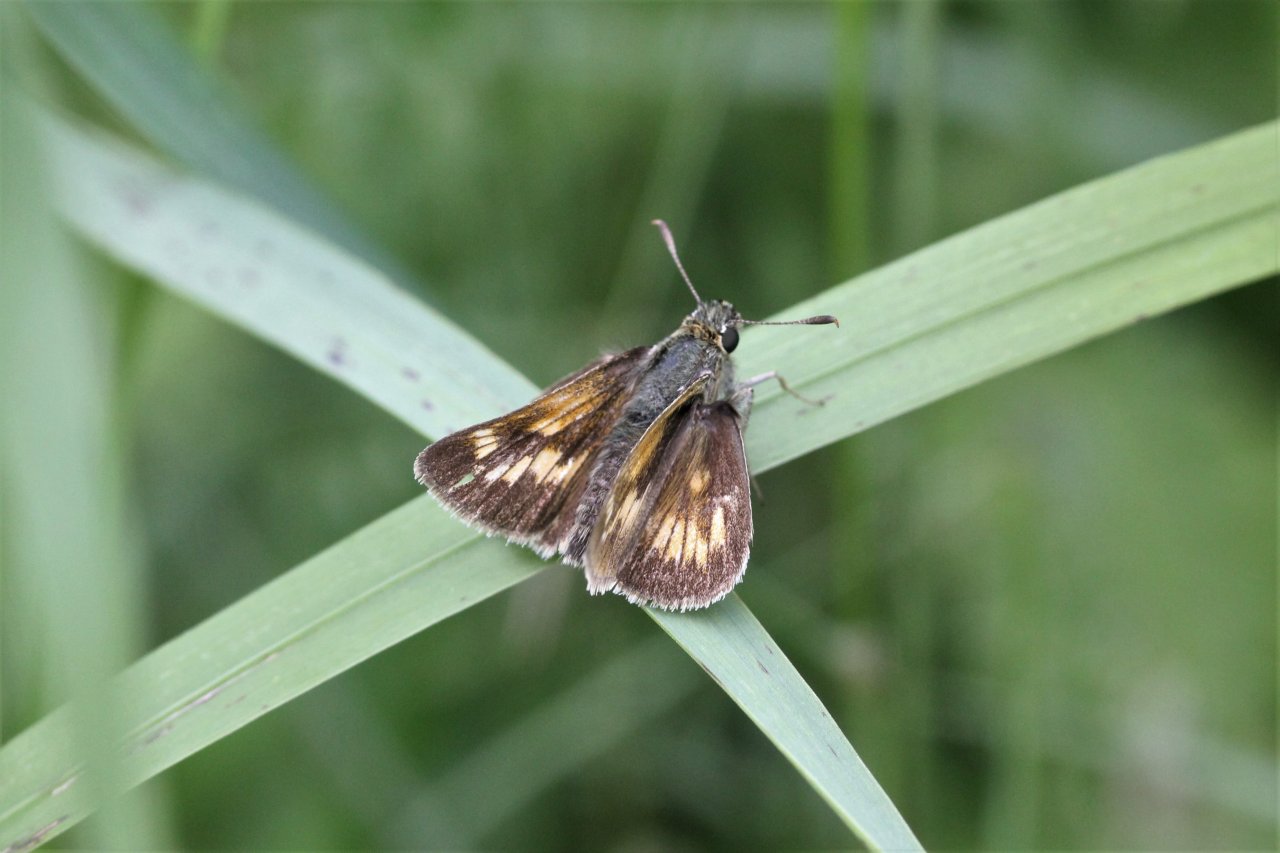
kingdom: Animalia
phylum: Arthropoda
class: Insecta
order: Lepidoptera
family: Hesperiidae
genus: Polites
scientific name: Polites
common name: Long Dash Skipper
